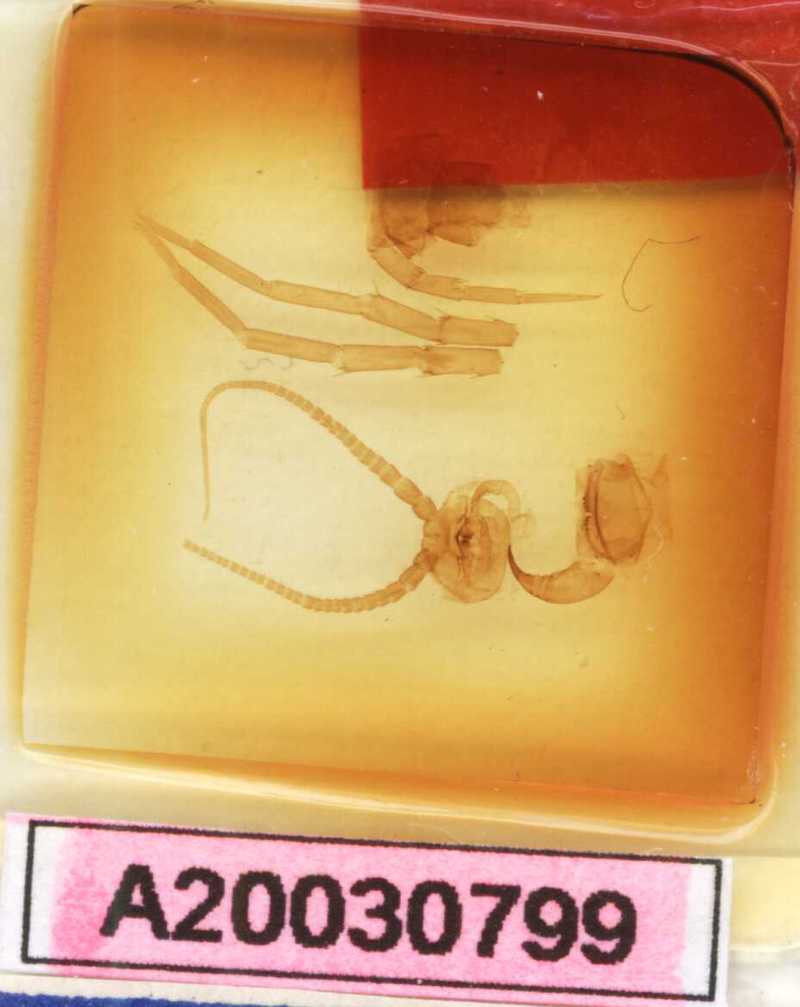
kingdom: Animalia
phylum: Arthropoda
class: Chilopoda
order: Lithobiomorpha
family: Lithobiidae
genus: Lithobius
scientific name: Lithobius viriatus
